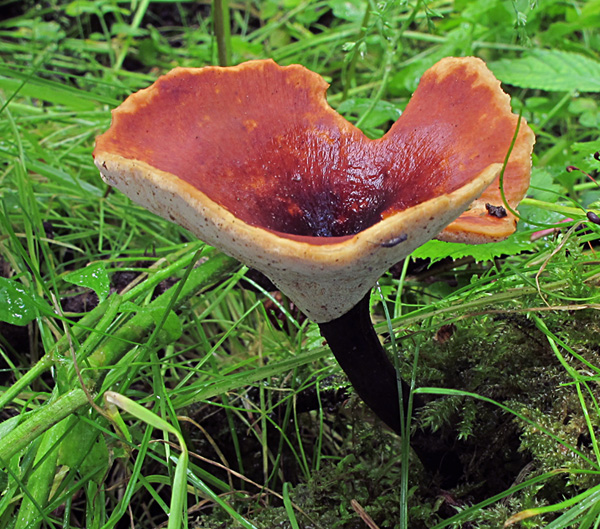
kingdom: Fungi
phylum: Basidiomycota
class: Agaricomycetes
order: Polyporales
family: Polyporaceae
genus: Picipes
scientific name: Picipes tubaeformis
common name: trompet-stilkporesvamp
